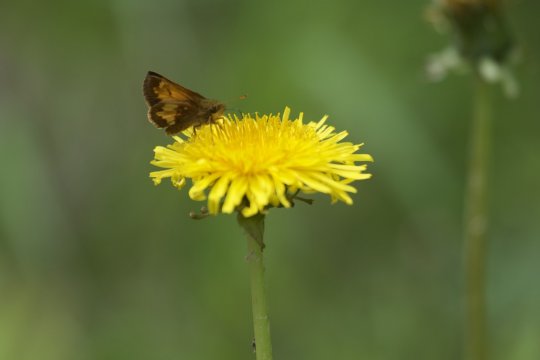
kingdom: Animalia
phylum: Arthropoda
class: Insecta
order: Lepidoptera
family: Hesperiidae
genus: Lon
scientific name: Lon hobomok
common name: Hobomok Skipper
